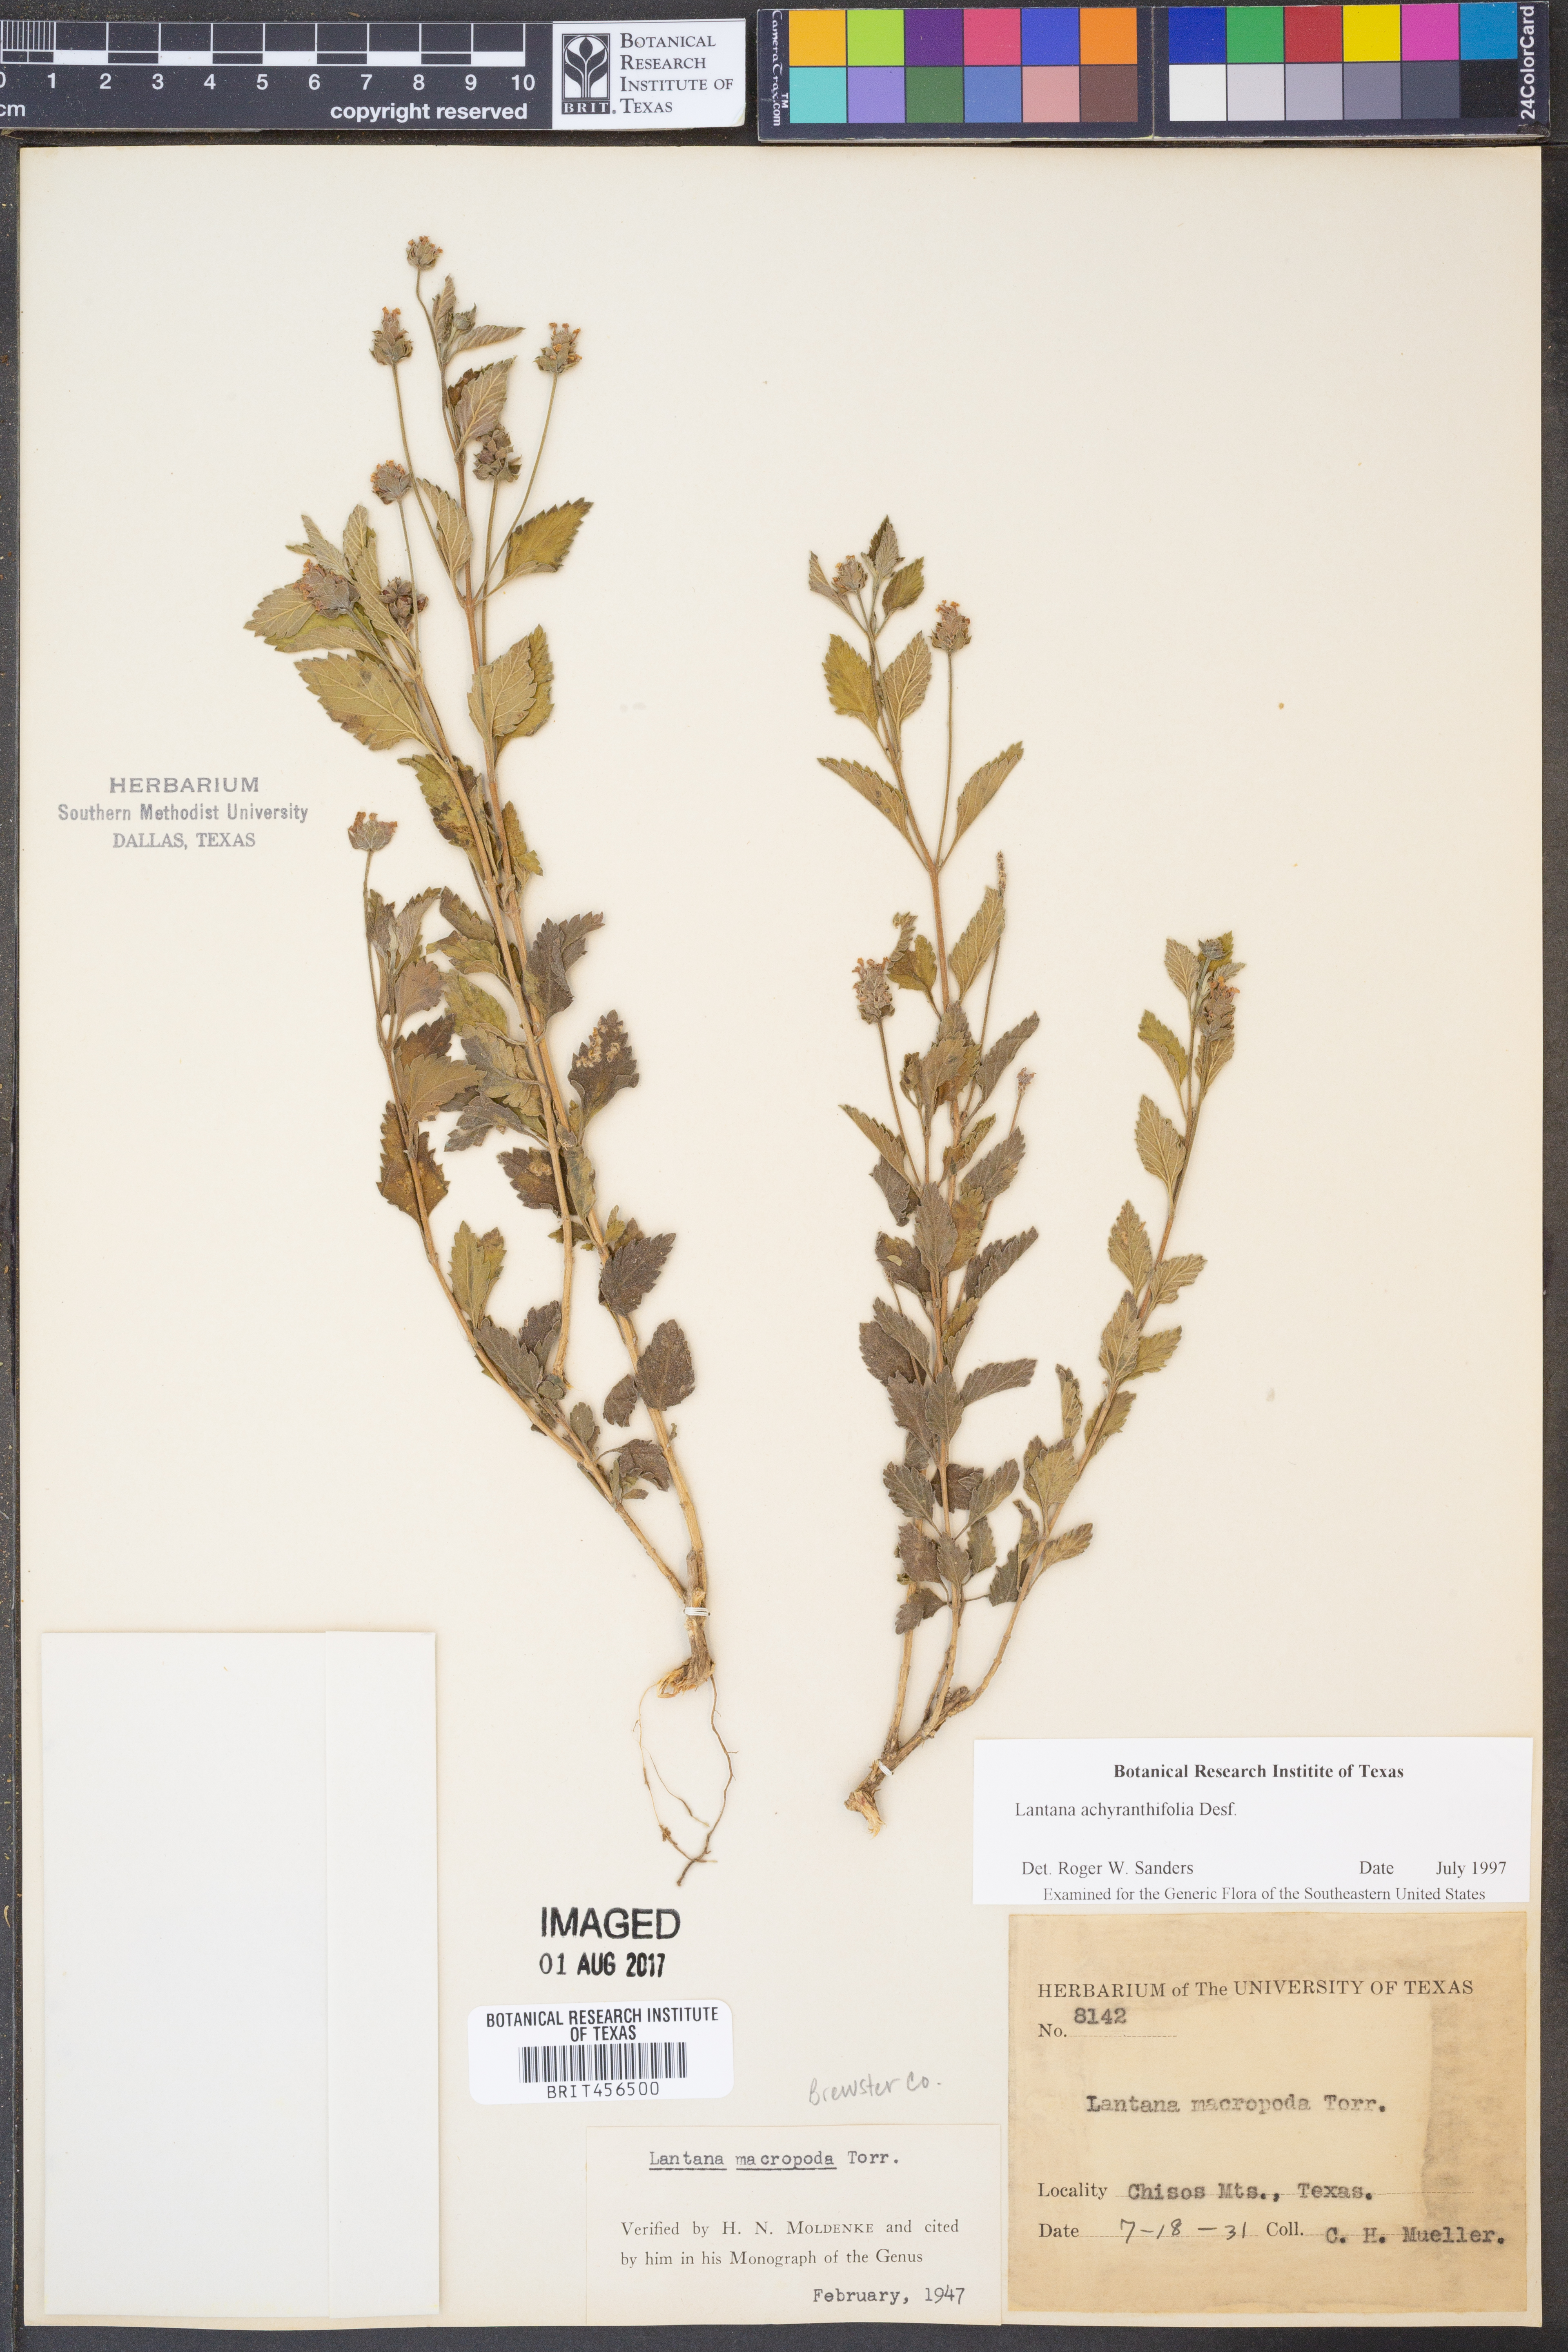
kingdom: Plantae
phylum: Tracheophyta
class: Magnoliopsida
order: Lamiales
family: Verbenaceae
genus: Lantana
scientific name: Lantana achyranthifolia
